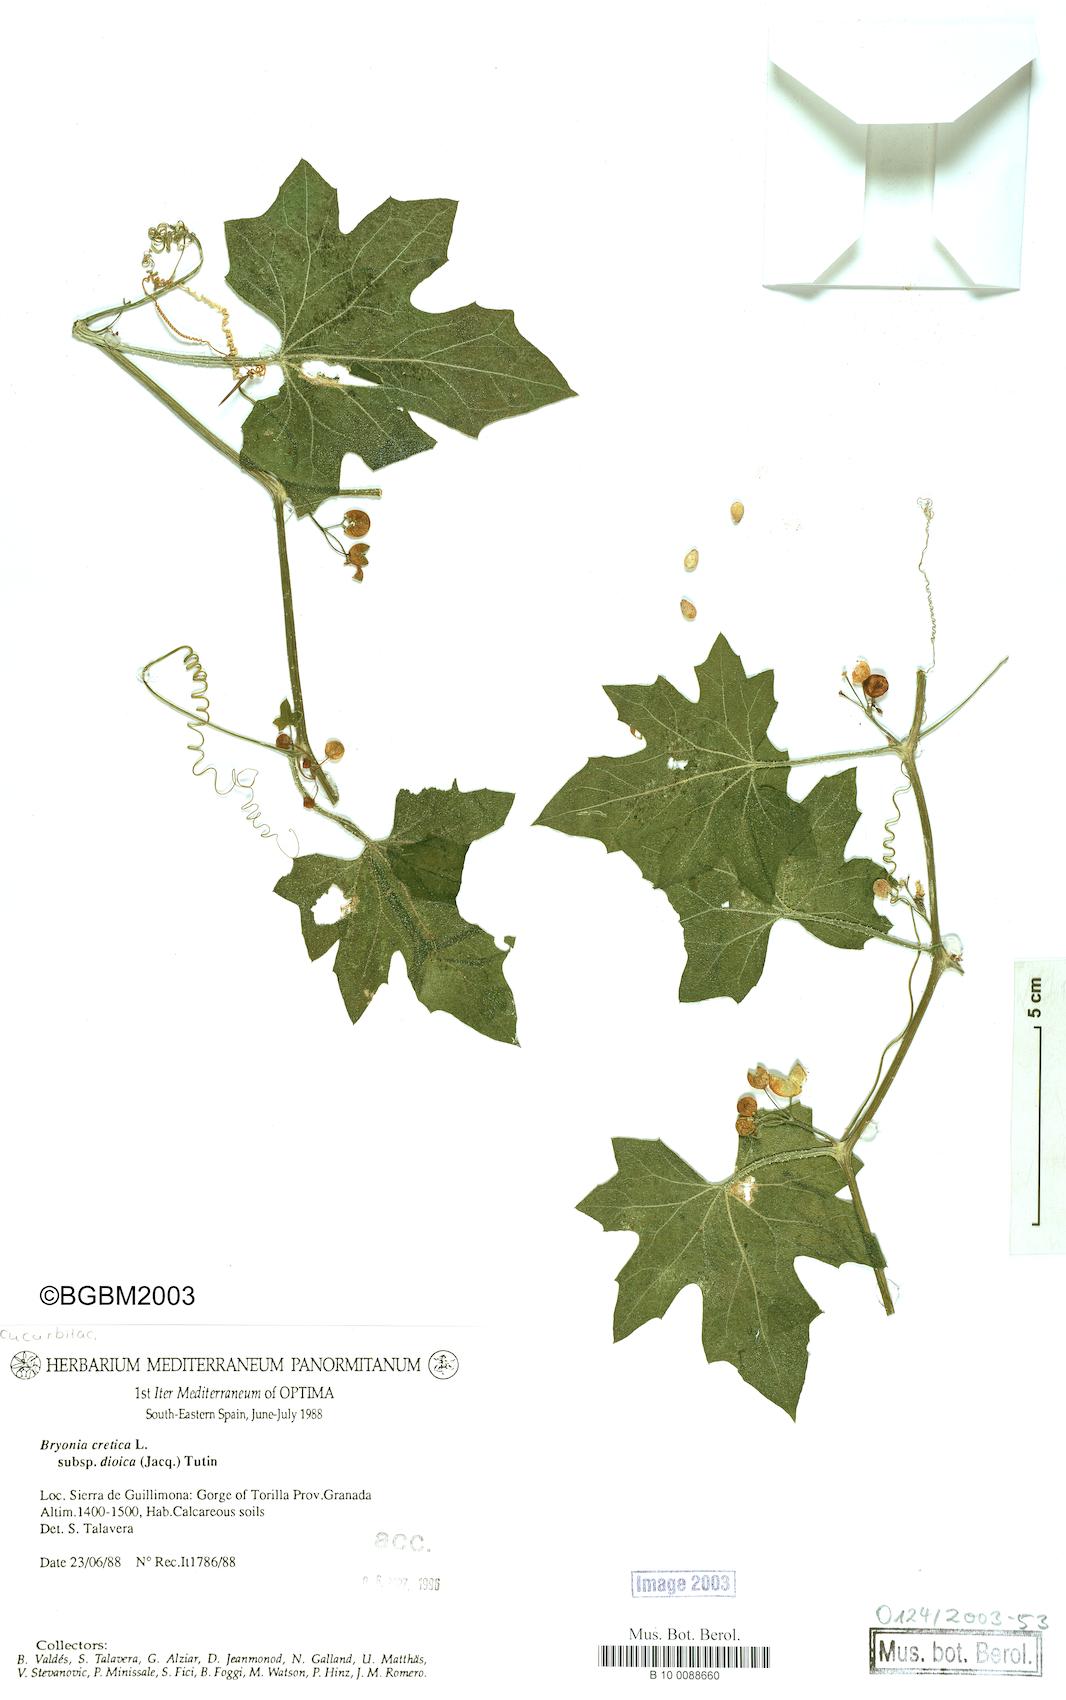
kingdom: Plantae
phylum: Tracheophyta
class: Magnoliopsida
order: Cucurbitales
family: Cucurbitaceae
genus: Bryonia
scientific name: Bryonia dioica
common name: White bryony
